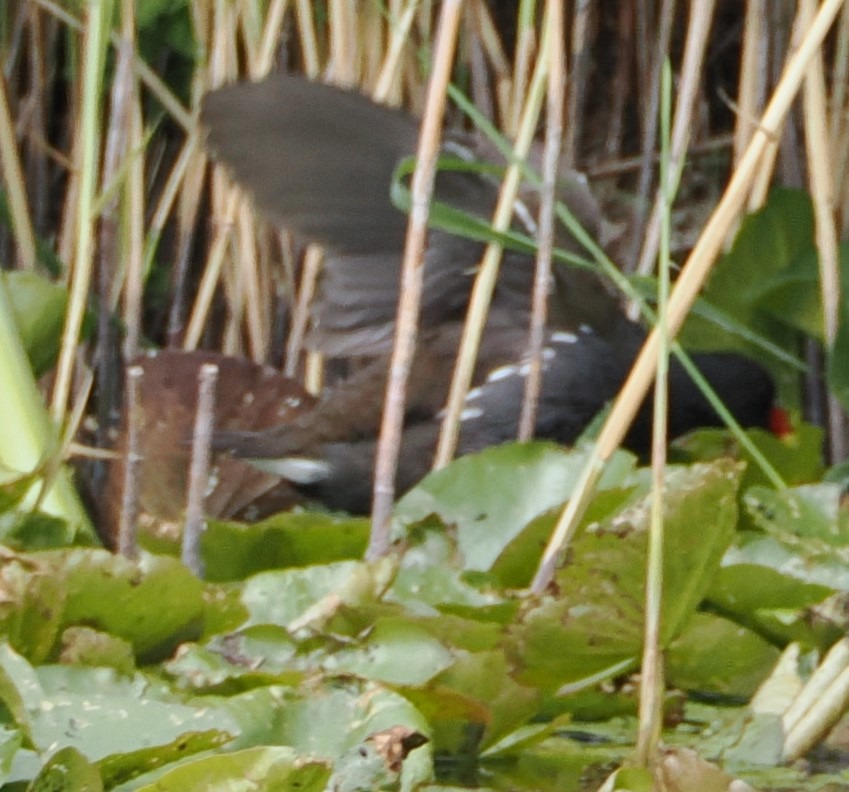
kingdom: Animalia
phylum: Chordata
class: Aves
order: Gruiformes
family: Rallidae
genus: Gallinula
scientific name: Gallinula chloropus
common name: Grønbenet rørhøne
